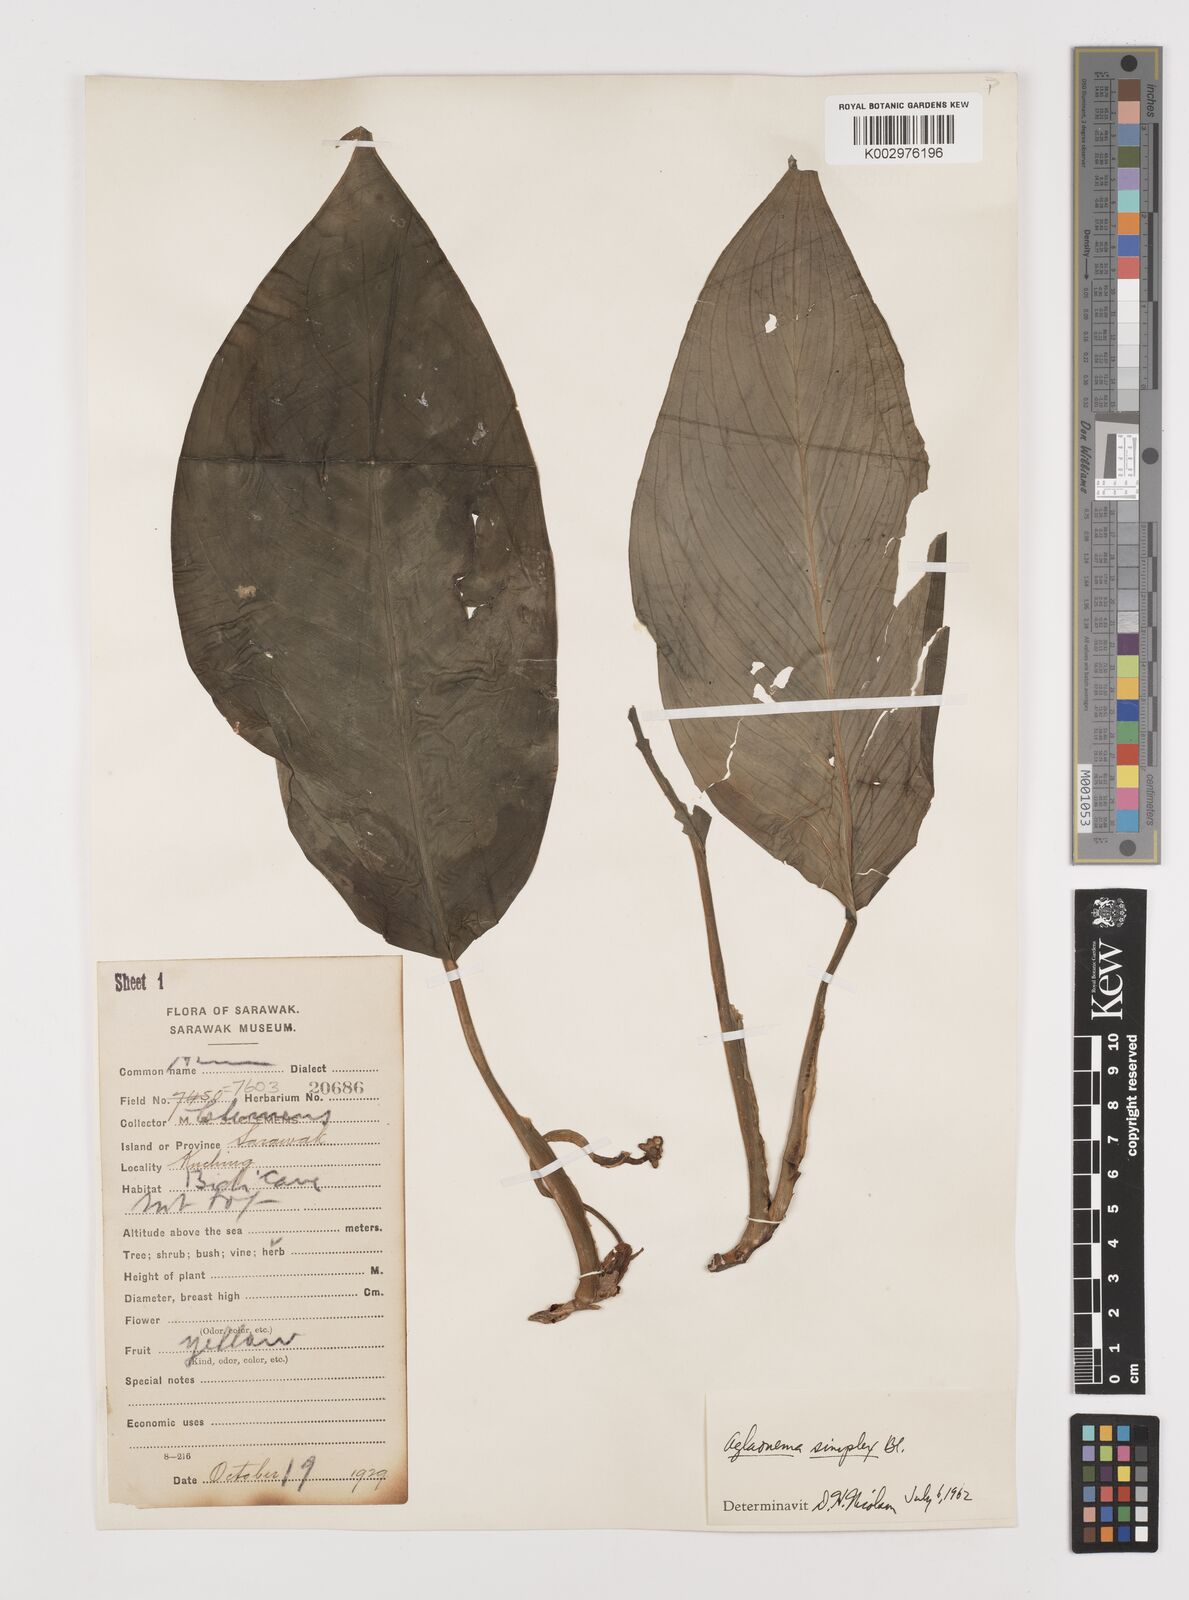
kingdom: Plantae
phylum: Tracheophyta
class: Liliopsida
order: Alismatales
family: Araceae
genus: Aglaonema
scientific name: Aglaonema simplex
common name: Malayan-sword
